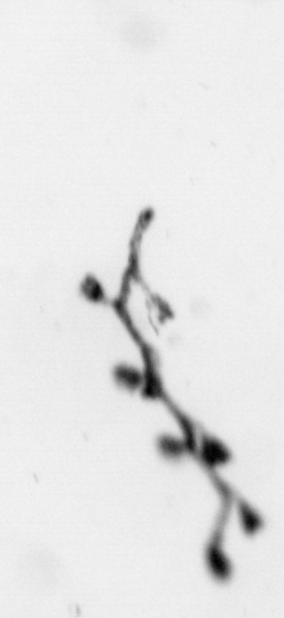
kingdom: Animalia
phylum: Cnidaria
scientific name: Cnidaria
